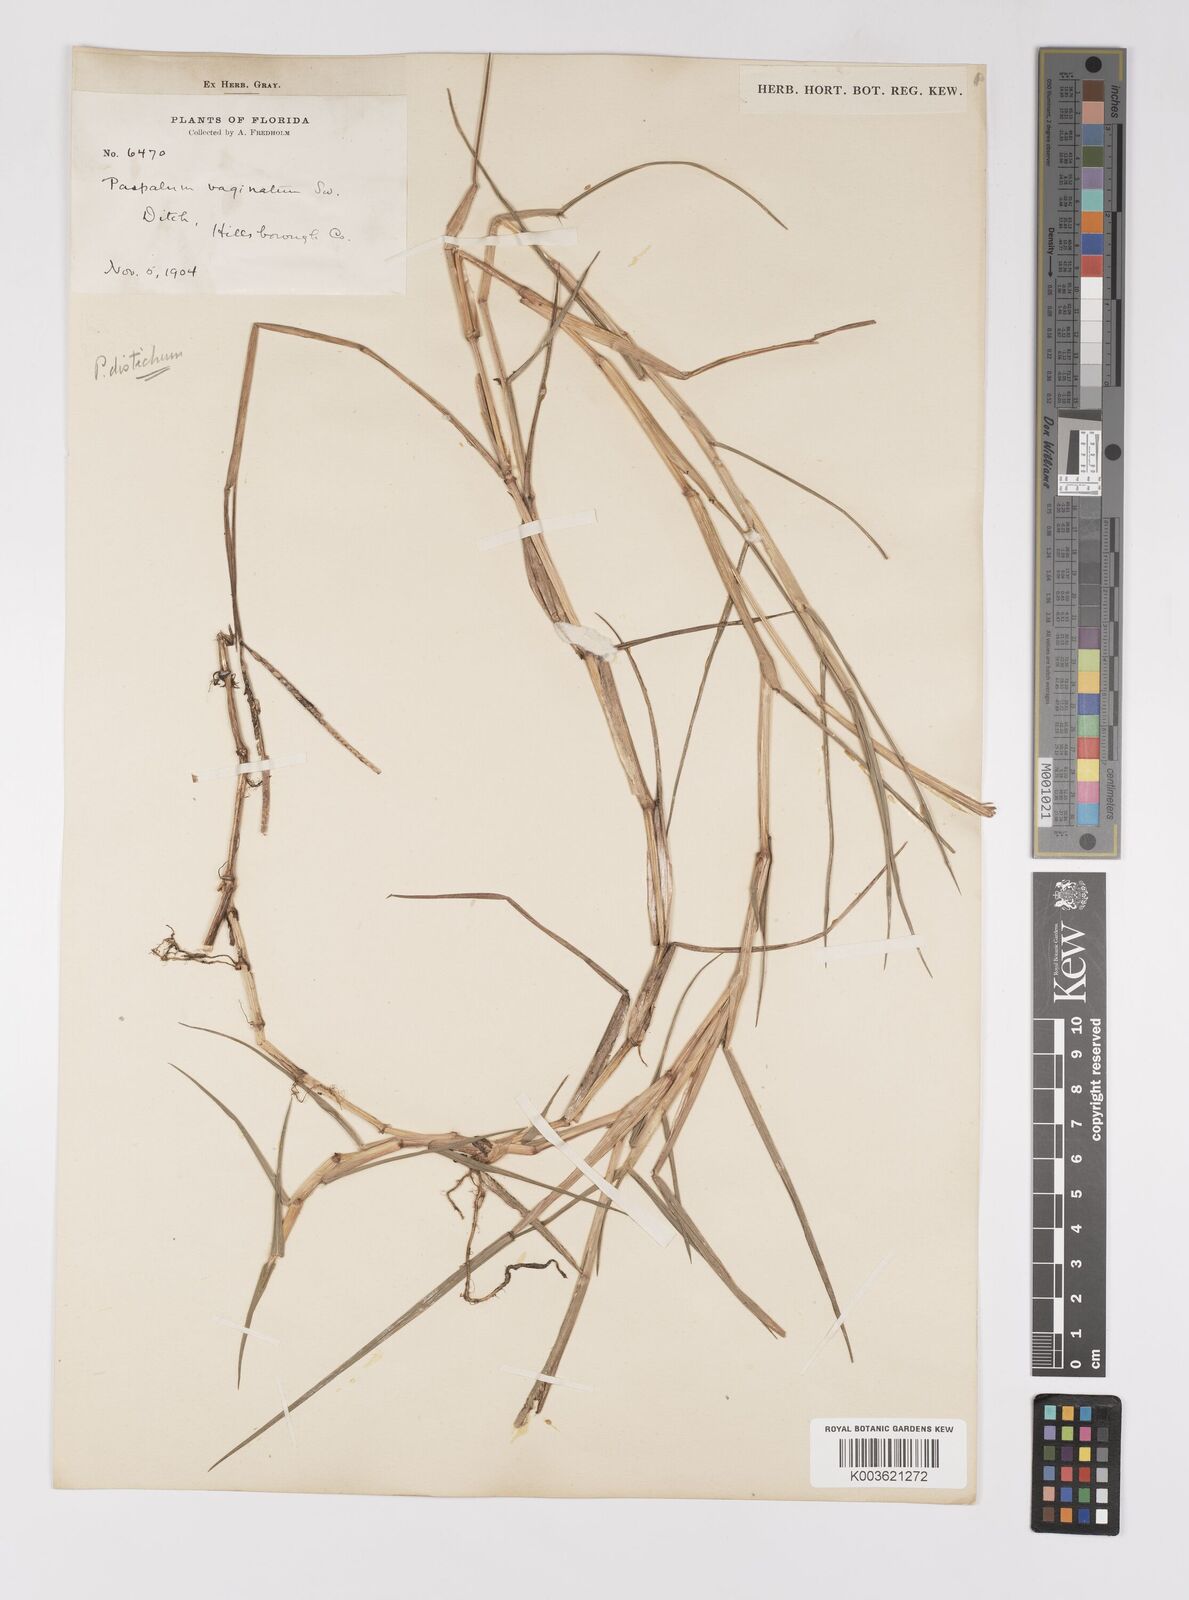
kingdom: Plantae
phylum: Tracheophyta
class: Liliopsida
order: Poales
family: Poaceae
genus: Paspalum
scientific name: Paspalum distichum
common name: Knotgrass
